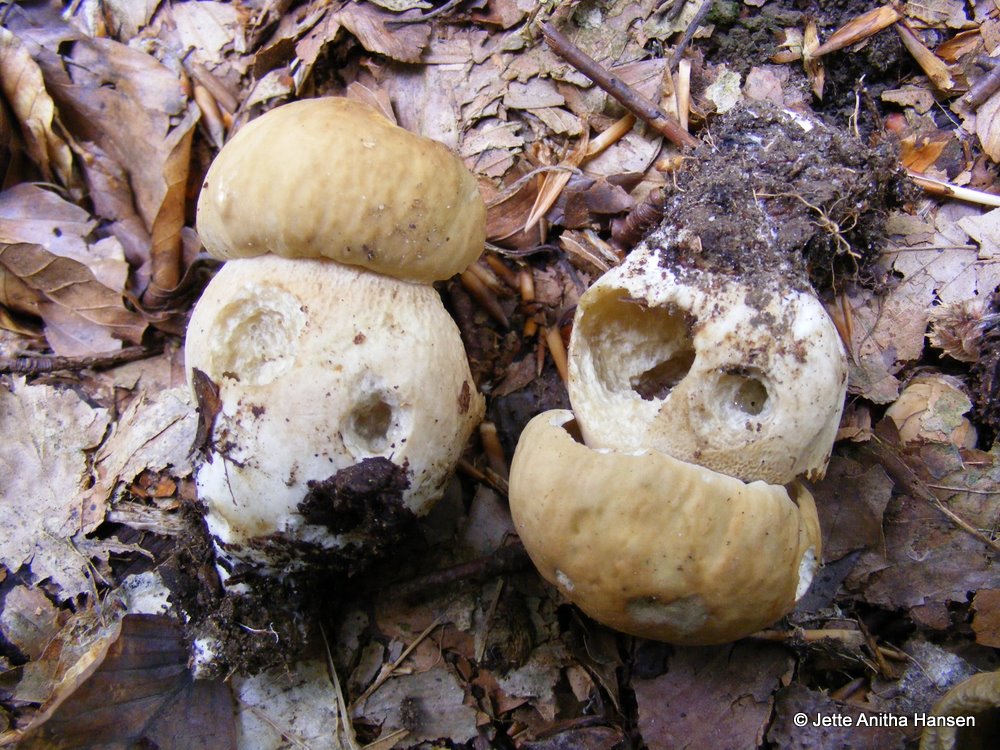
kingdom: Fungi
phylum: Basidiomycota
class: Agaricomycetes
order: Boletales
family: Boletaceae
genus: Boletus
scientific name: Boletus reticulatus
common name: sommer-rørhat
